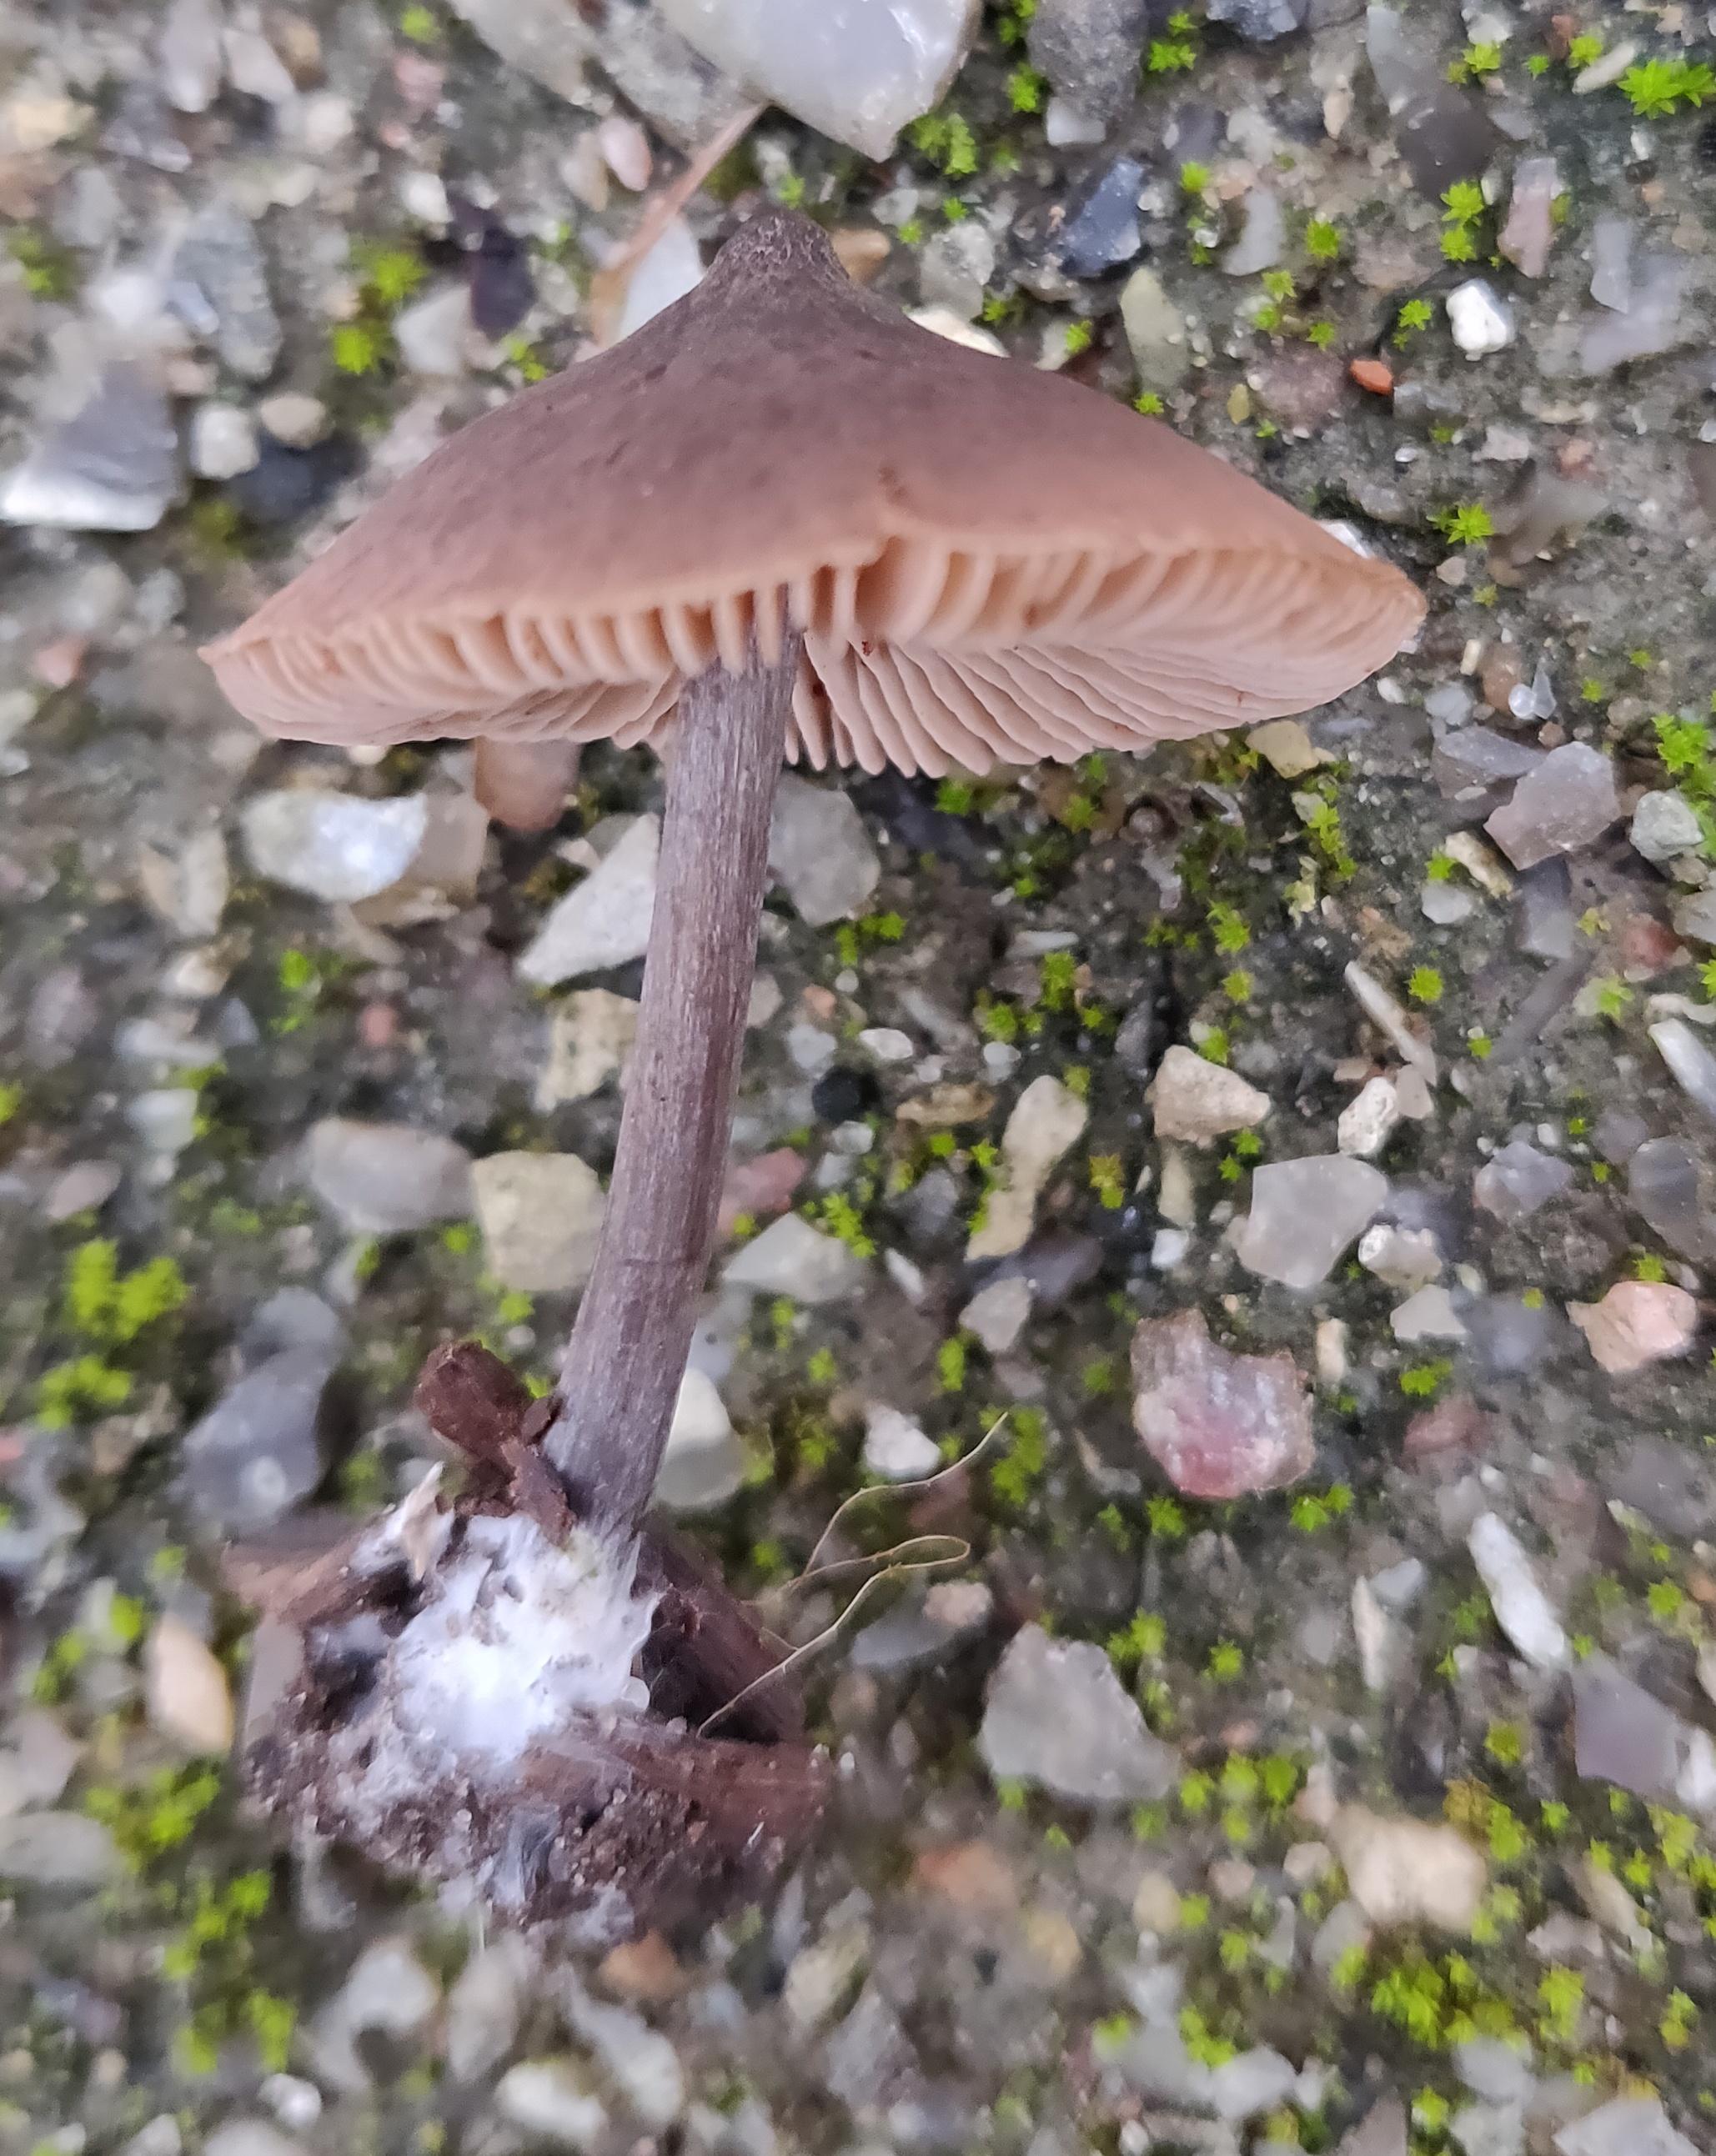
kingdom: Fungi
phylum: Basidiomycota
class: Agaricomycetes
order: Agaricales
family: Entolomataceae
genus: Entoloma
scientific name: Entoloma
